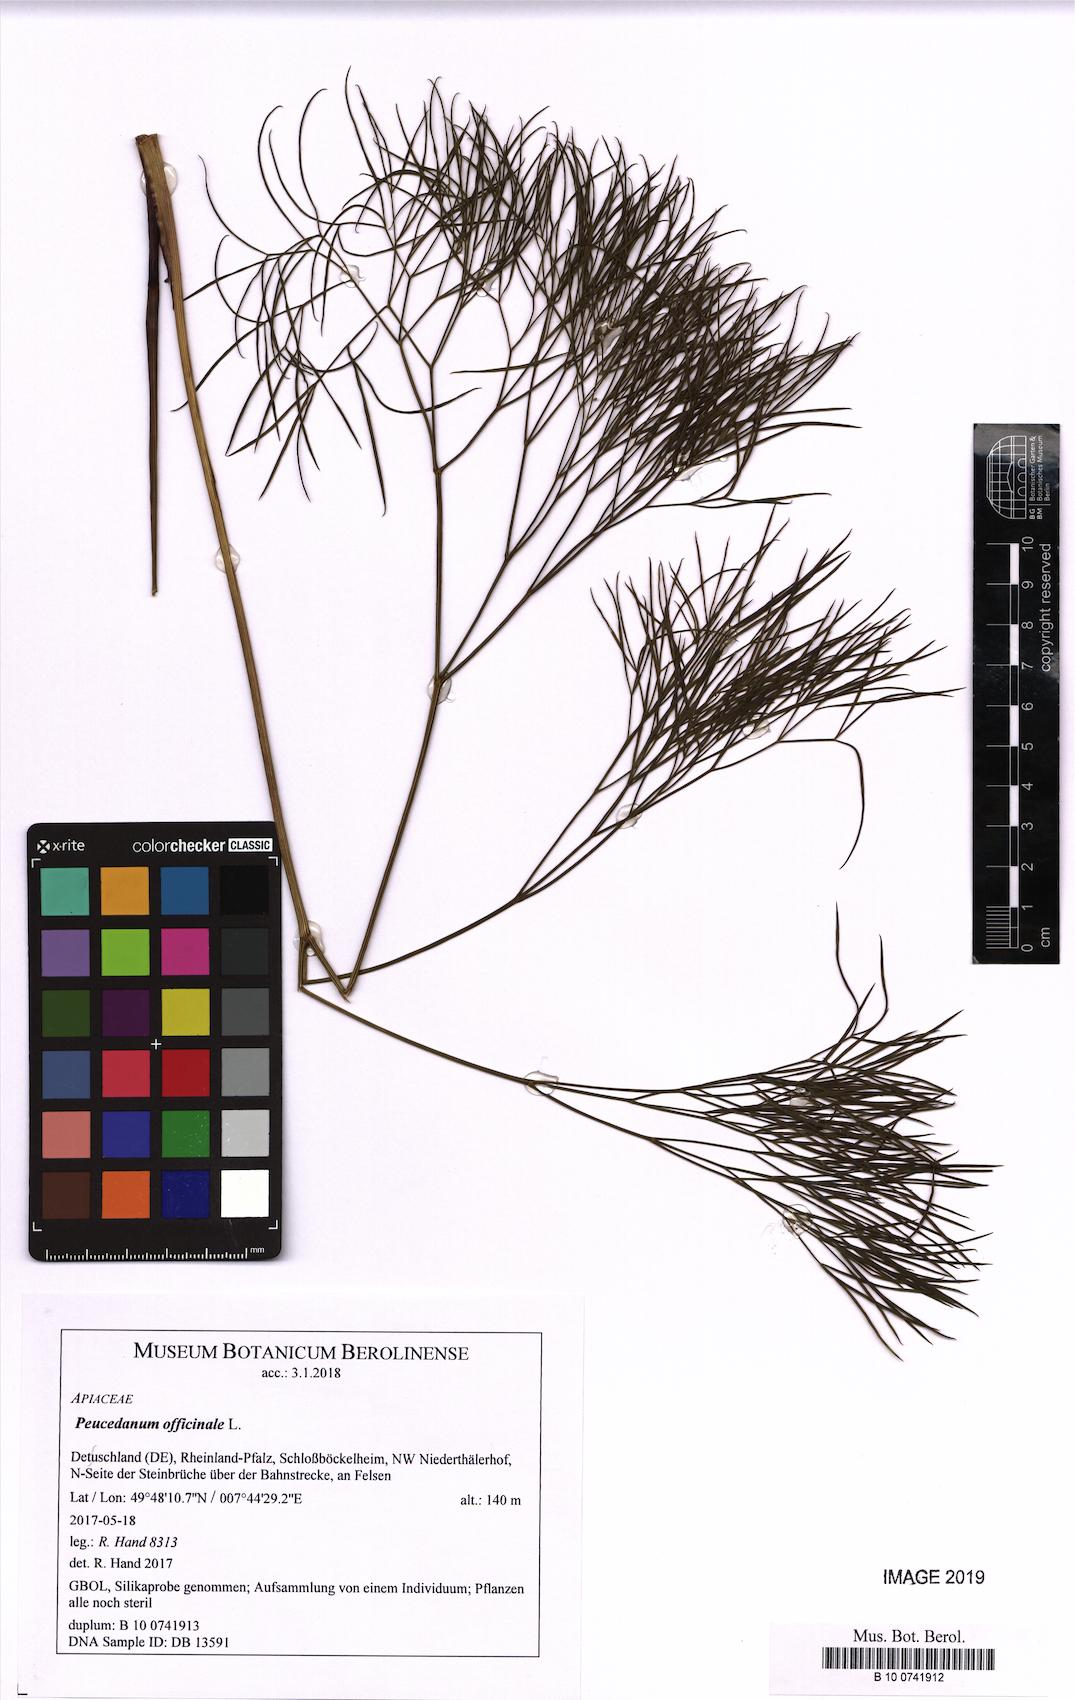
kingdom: Plantae
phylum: Tracheophyta
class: Magnoliopsida
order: Apiales
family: Apiaceae
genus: Peucedanum
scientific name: Peucedanum officinale
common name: Sulphurweed
